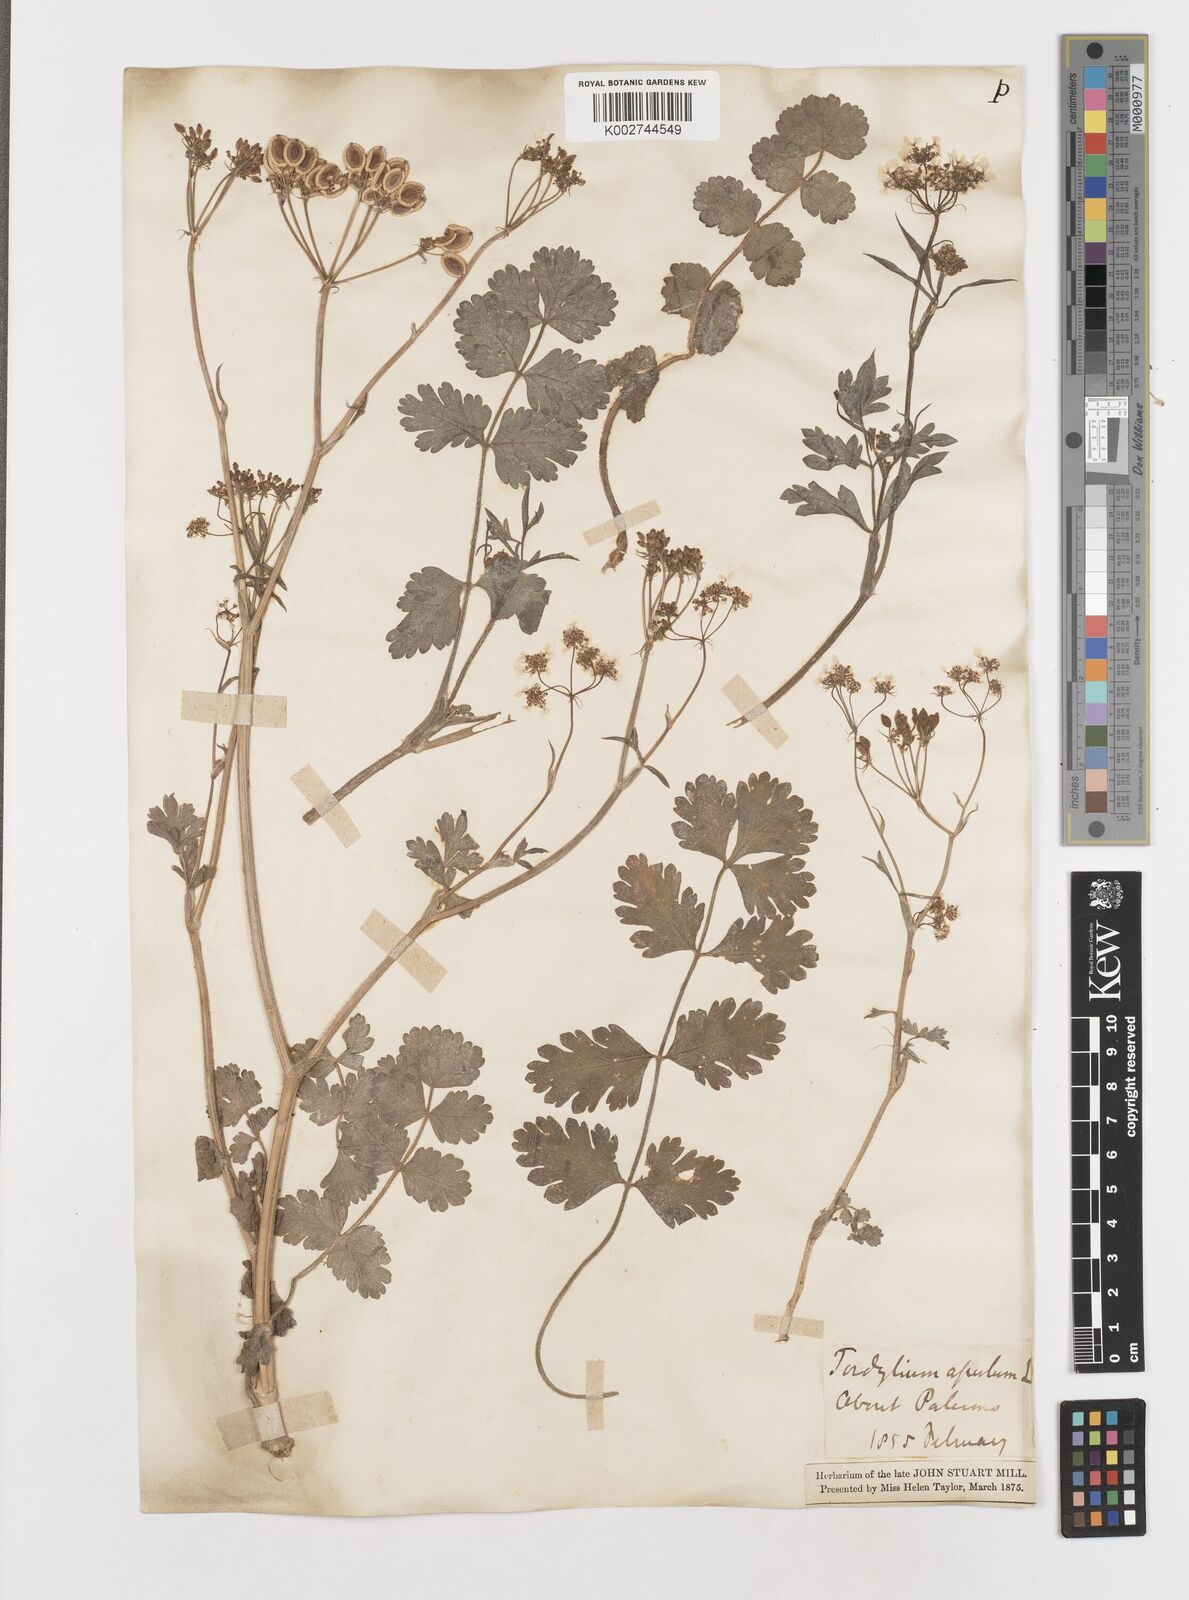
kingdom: Plantae
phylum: Tracheophyta
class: Magnoliopsida
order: Apiales
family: Apiaceae
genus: Tordylium
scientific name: Tordylium apulum
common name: Mediterranean hartwort
